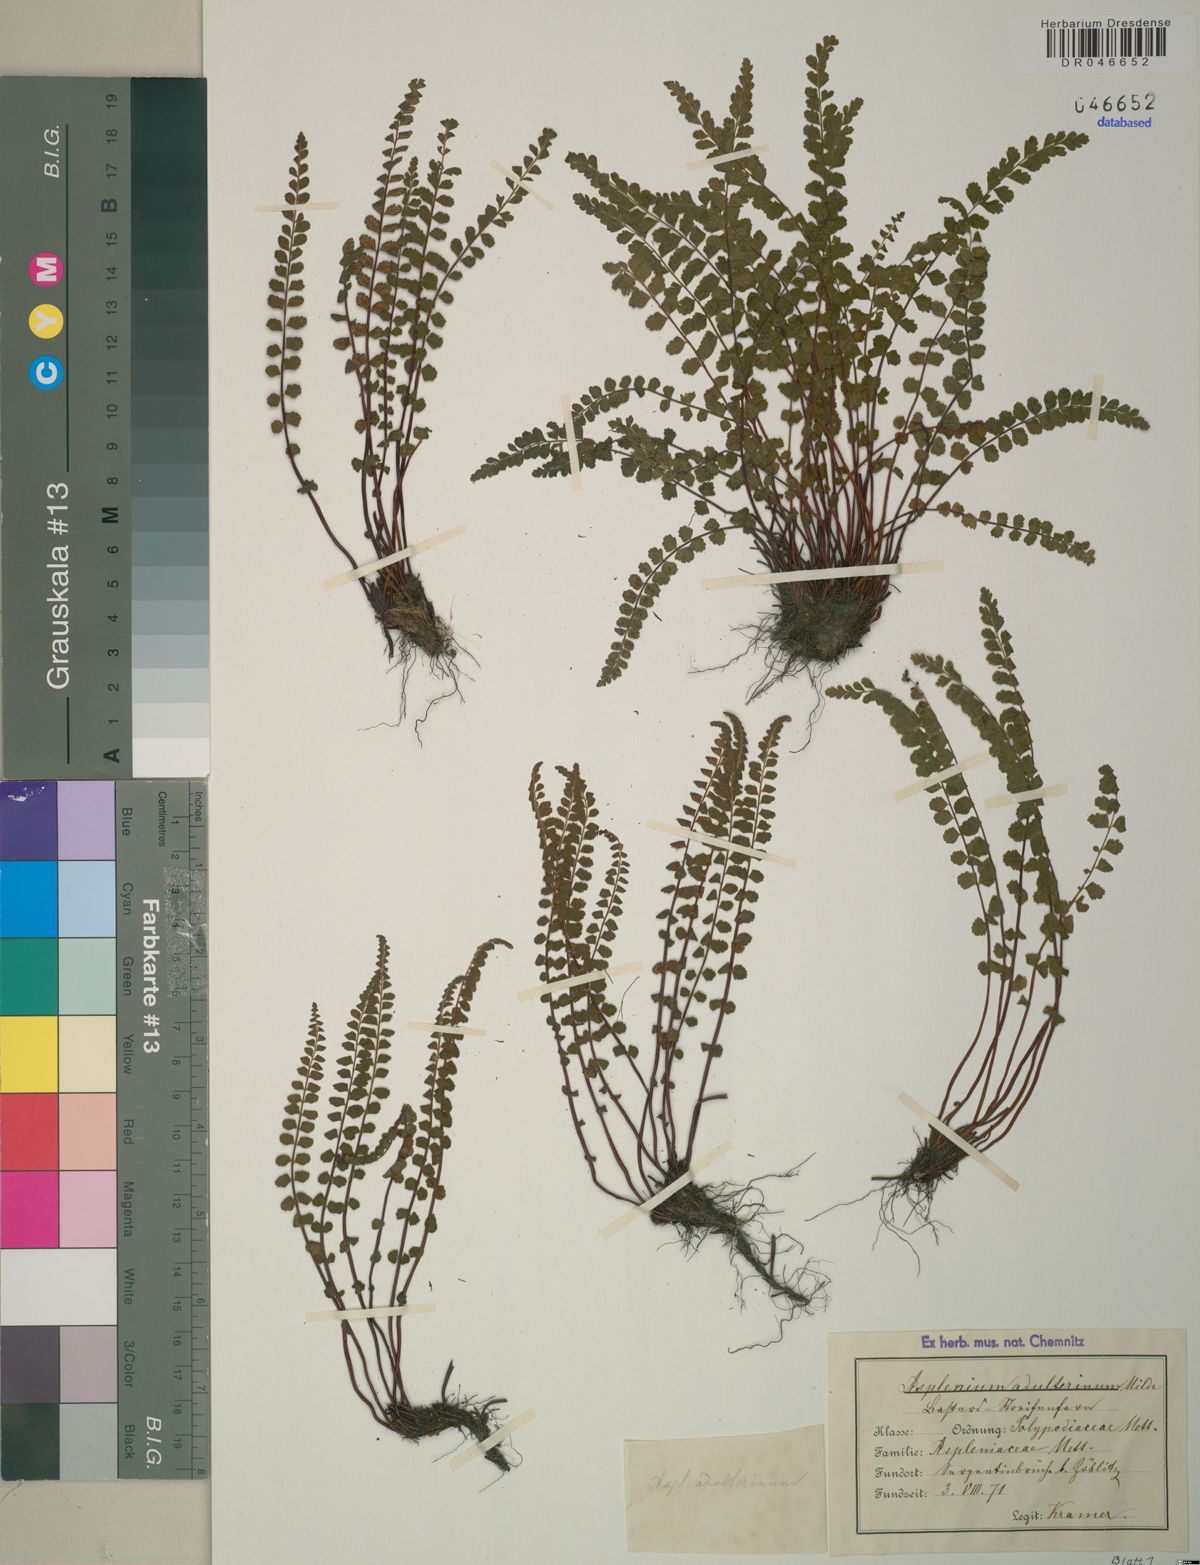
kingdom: Plantae
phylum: Tracheophyta
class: Polypodiopsida
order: Polypodiales
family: Aspleniaceae
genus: Asplenium
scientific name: Asplenium adulterinum
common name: Adulterated spleenwort
